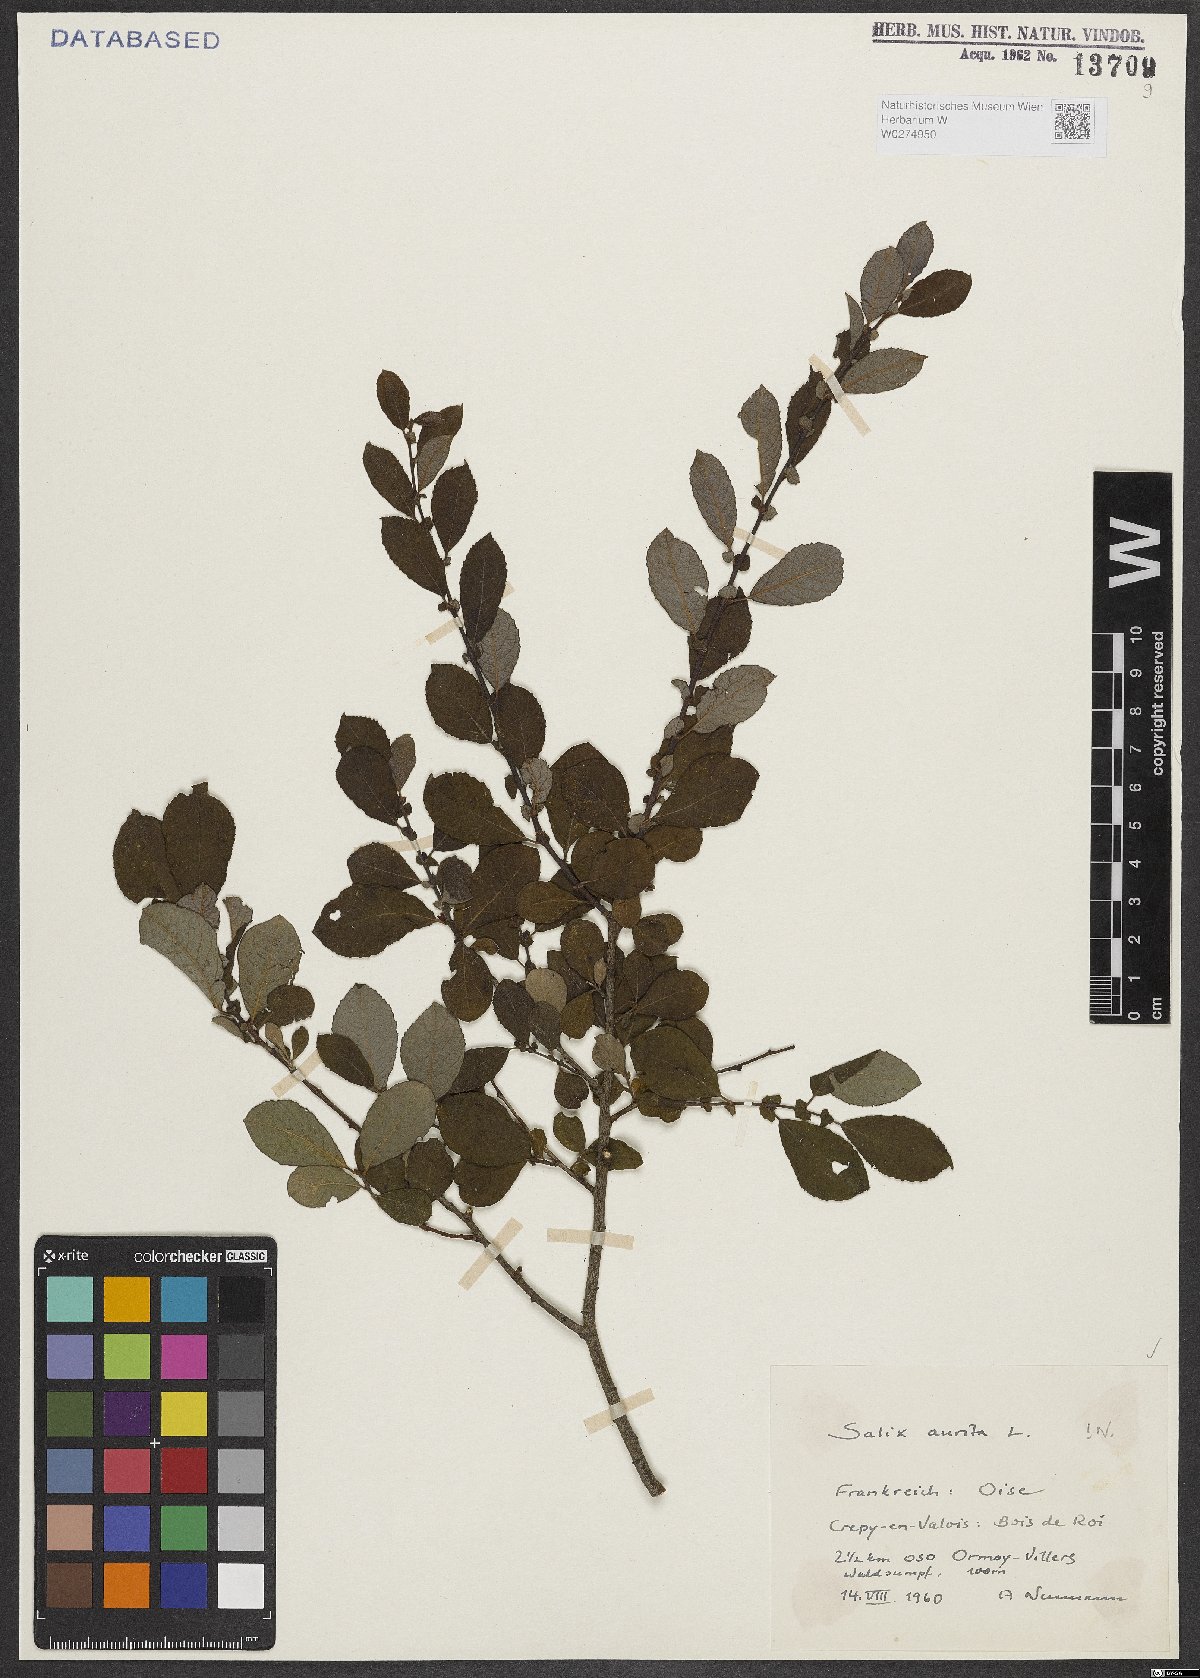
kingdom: Plantae
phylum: Tracheophyta
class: Magnoliopsida
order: Malpighiales
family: Salicaceae
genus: Salix
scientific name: Salix aurita
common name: Eared willow
